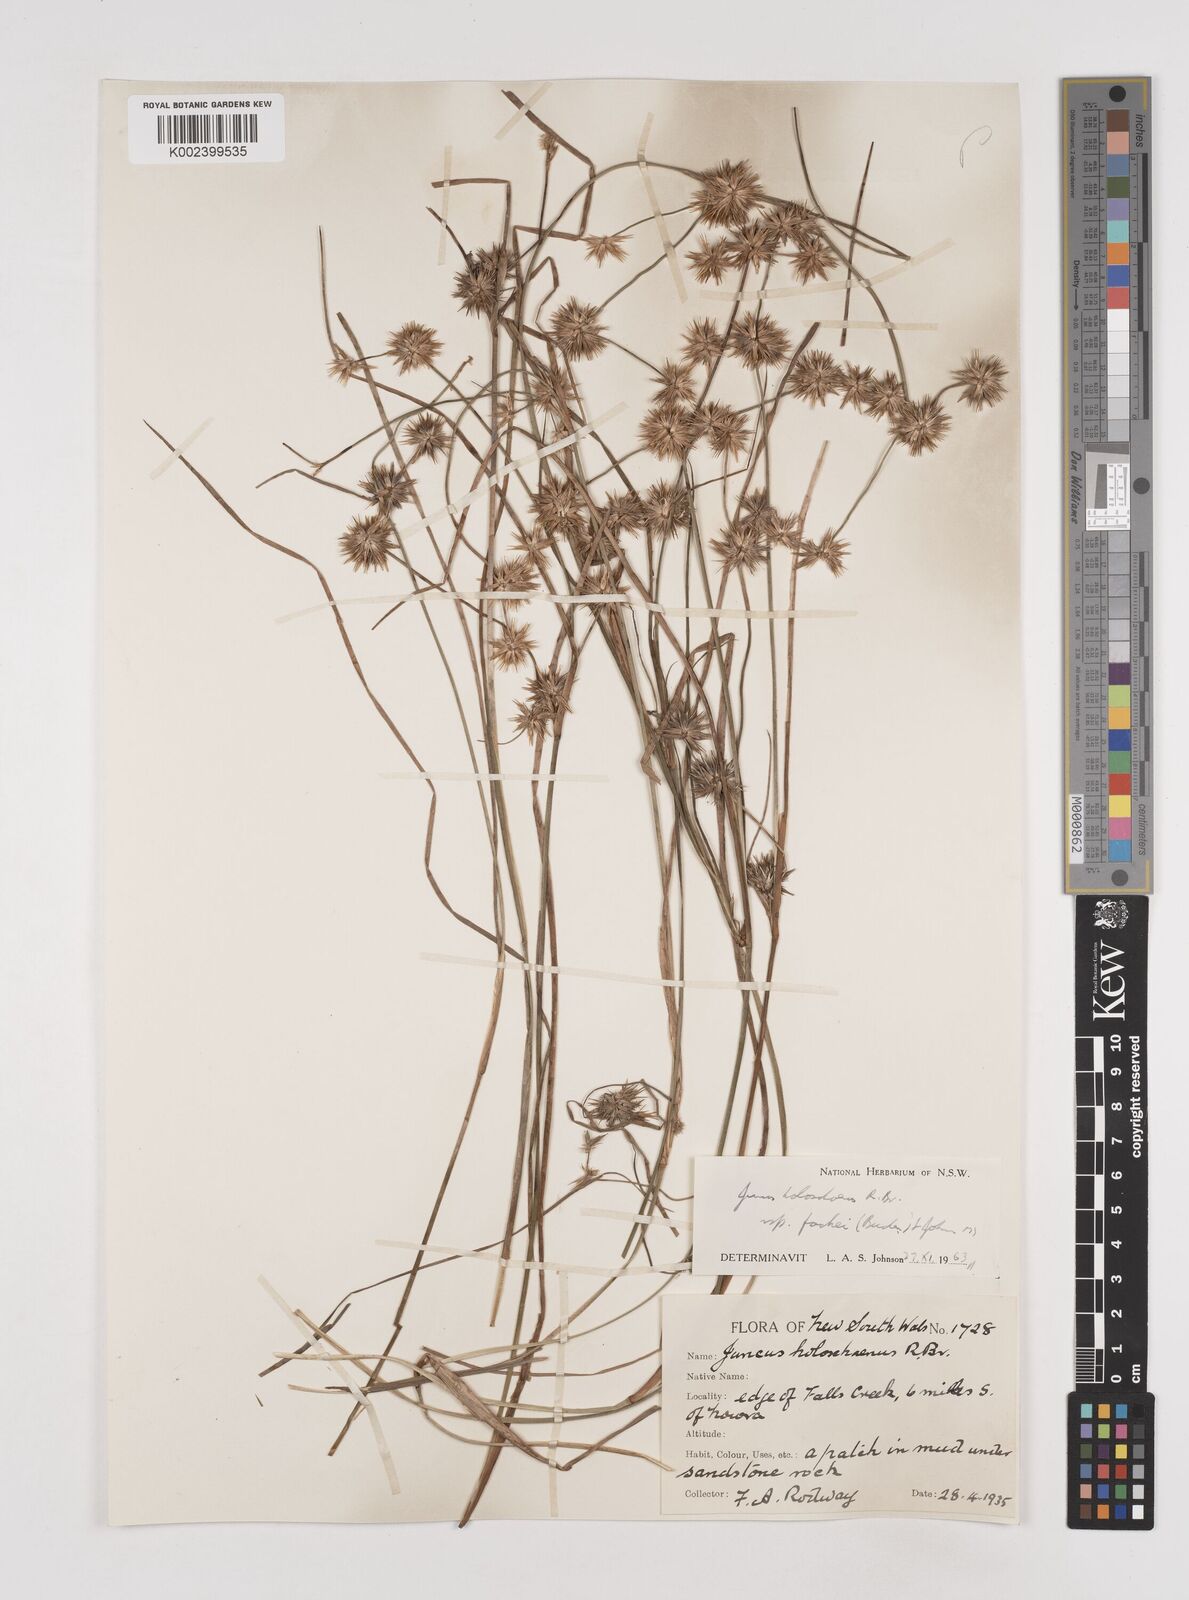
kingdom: Plantae
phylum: Tracheophyta
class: Liliopsida
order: Poales
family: Juncaceae
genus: Juncus
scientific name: Juncus holoschoenus
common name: Joint-leaf rush
